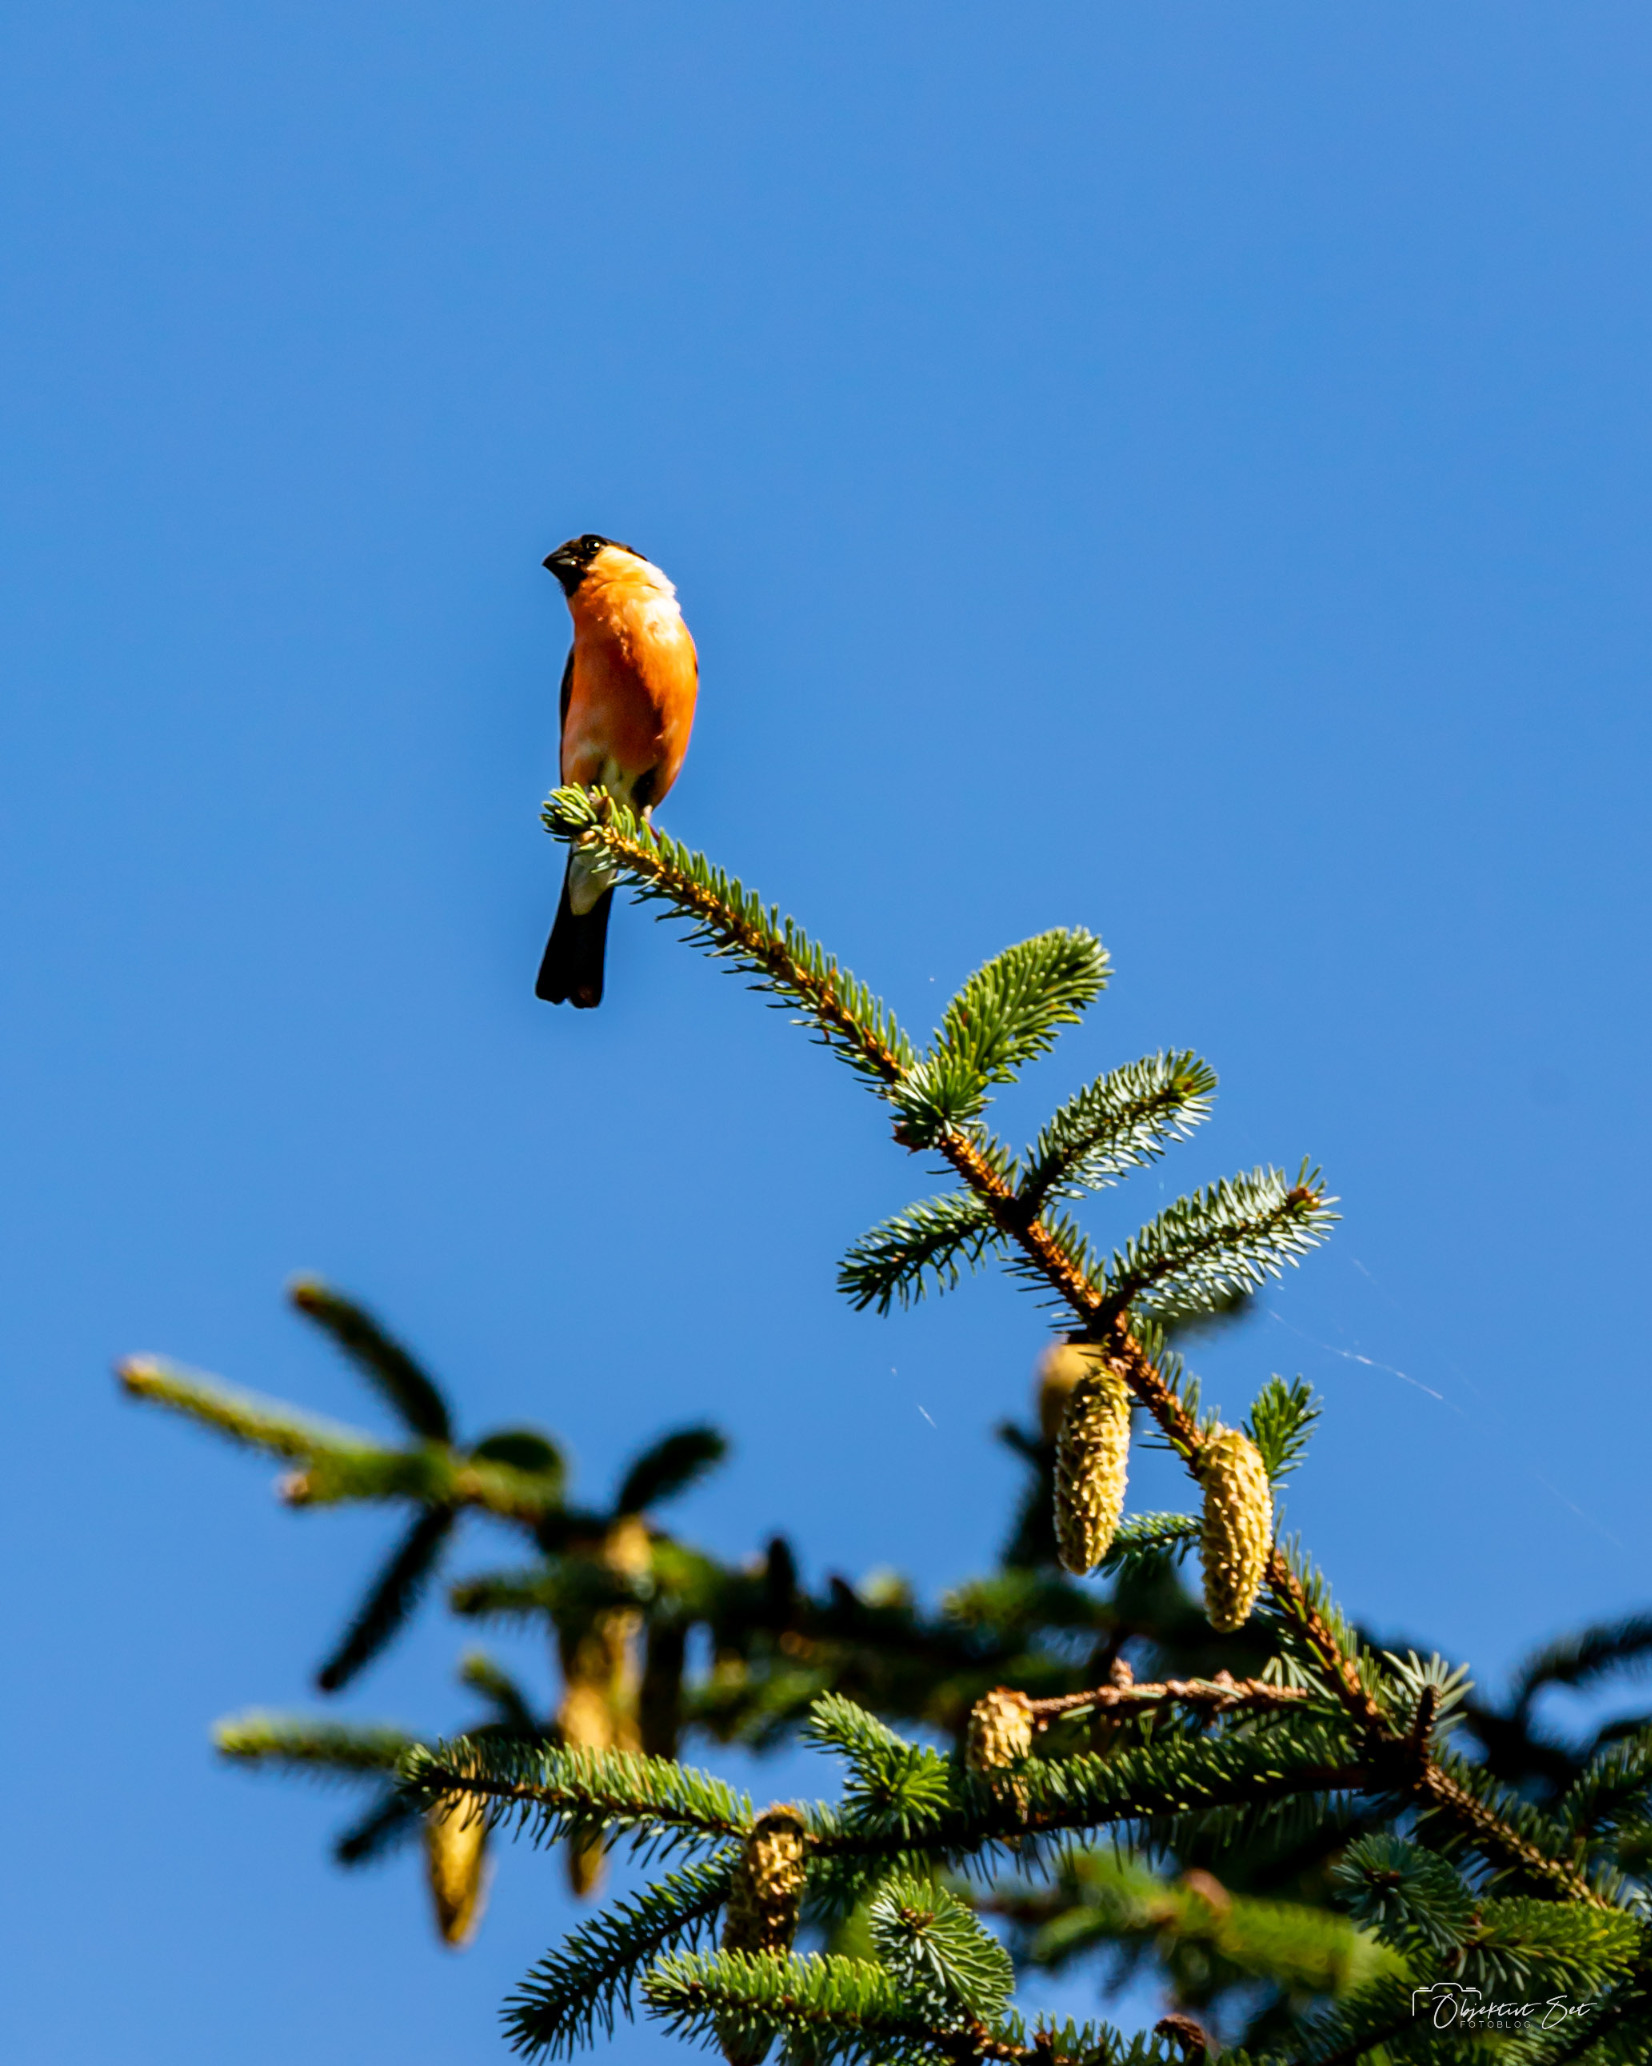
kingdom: Animalia
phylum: Chordata
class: Aves
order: Passeriformes
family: Fringillidae
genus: Pyrrhula
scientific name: Pyrrhula pyrrhula
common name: Dompap
